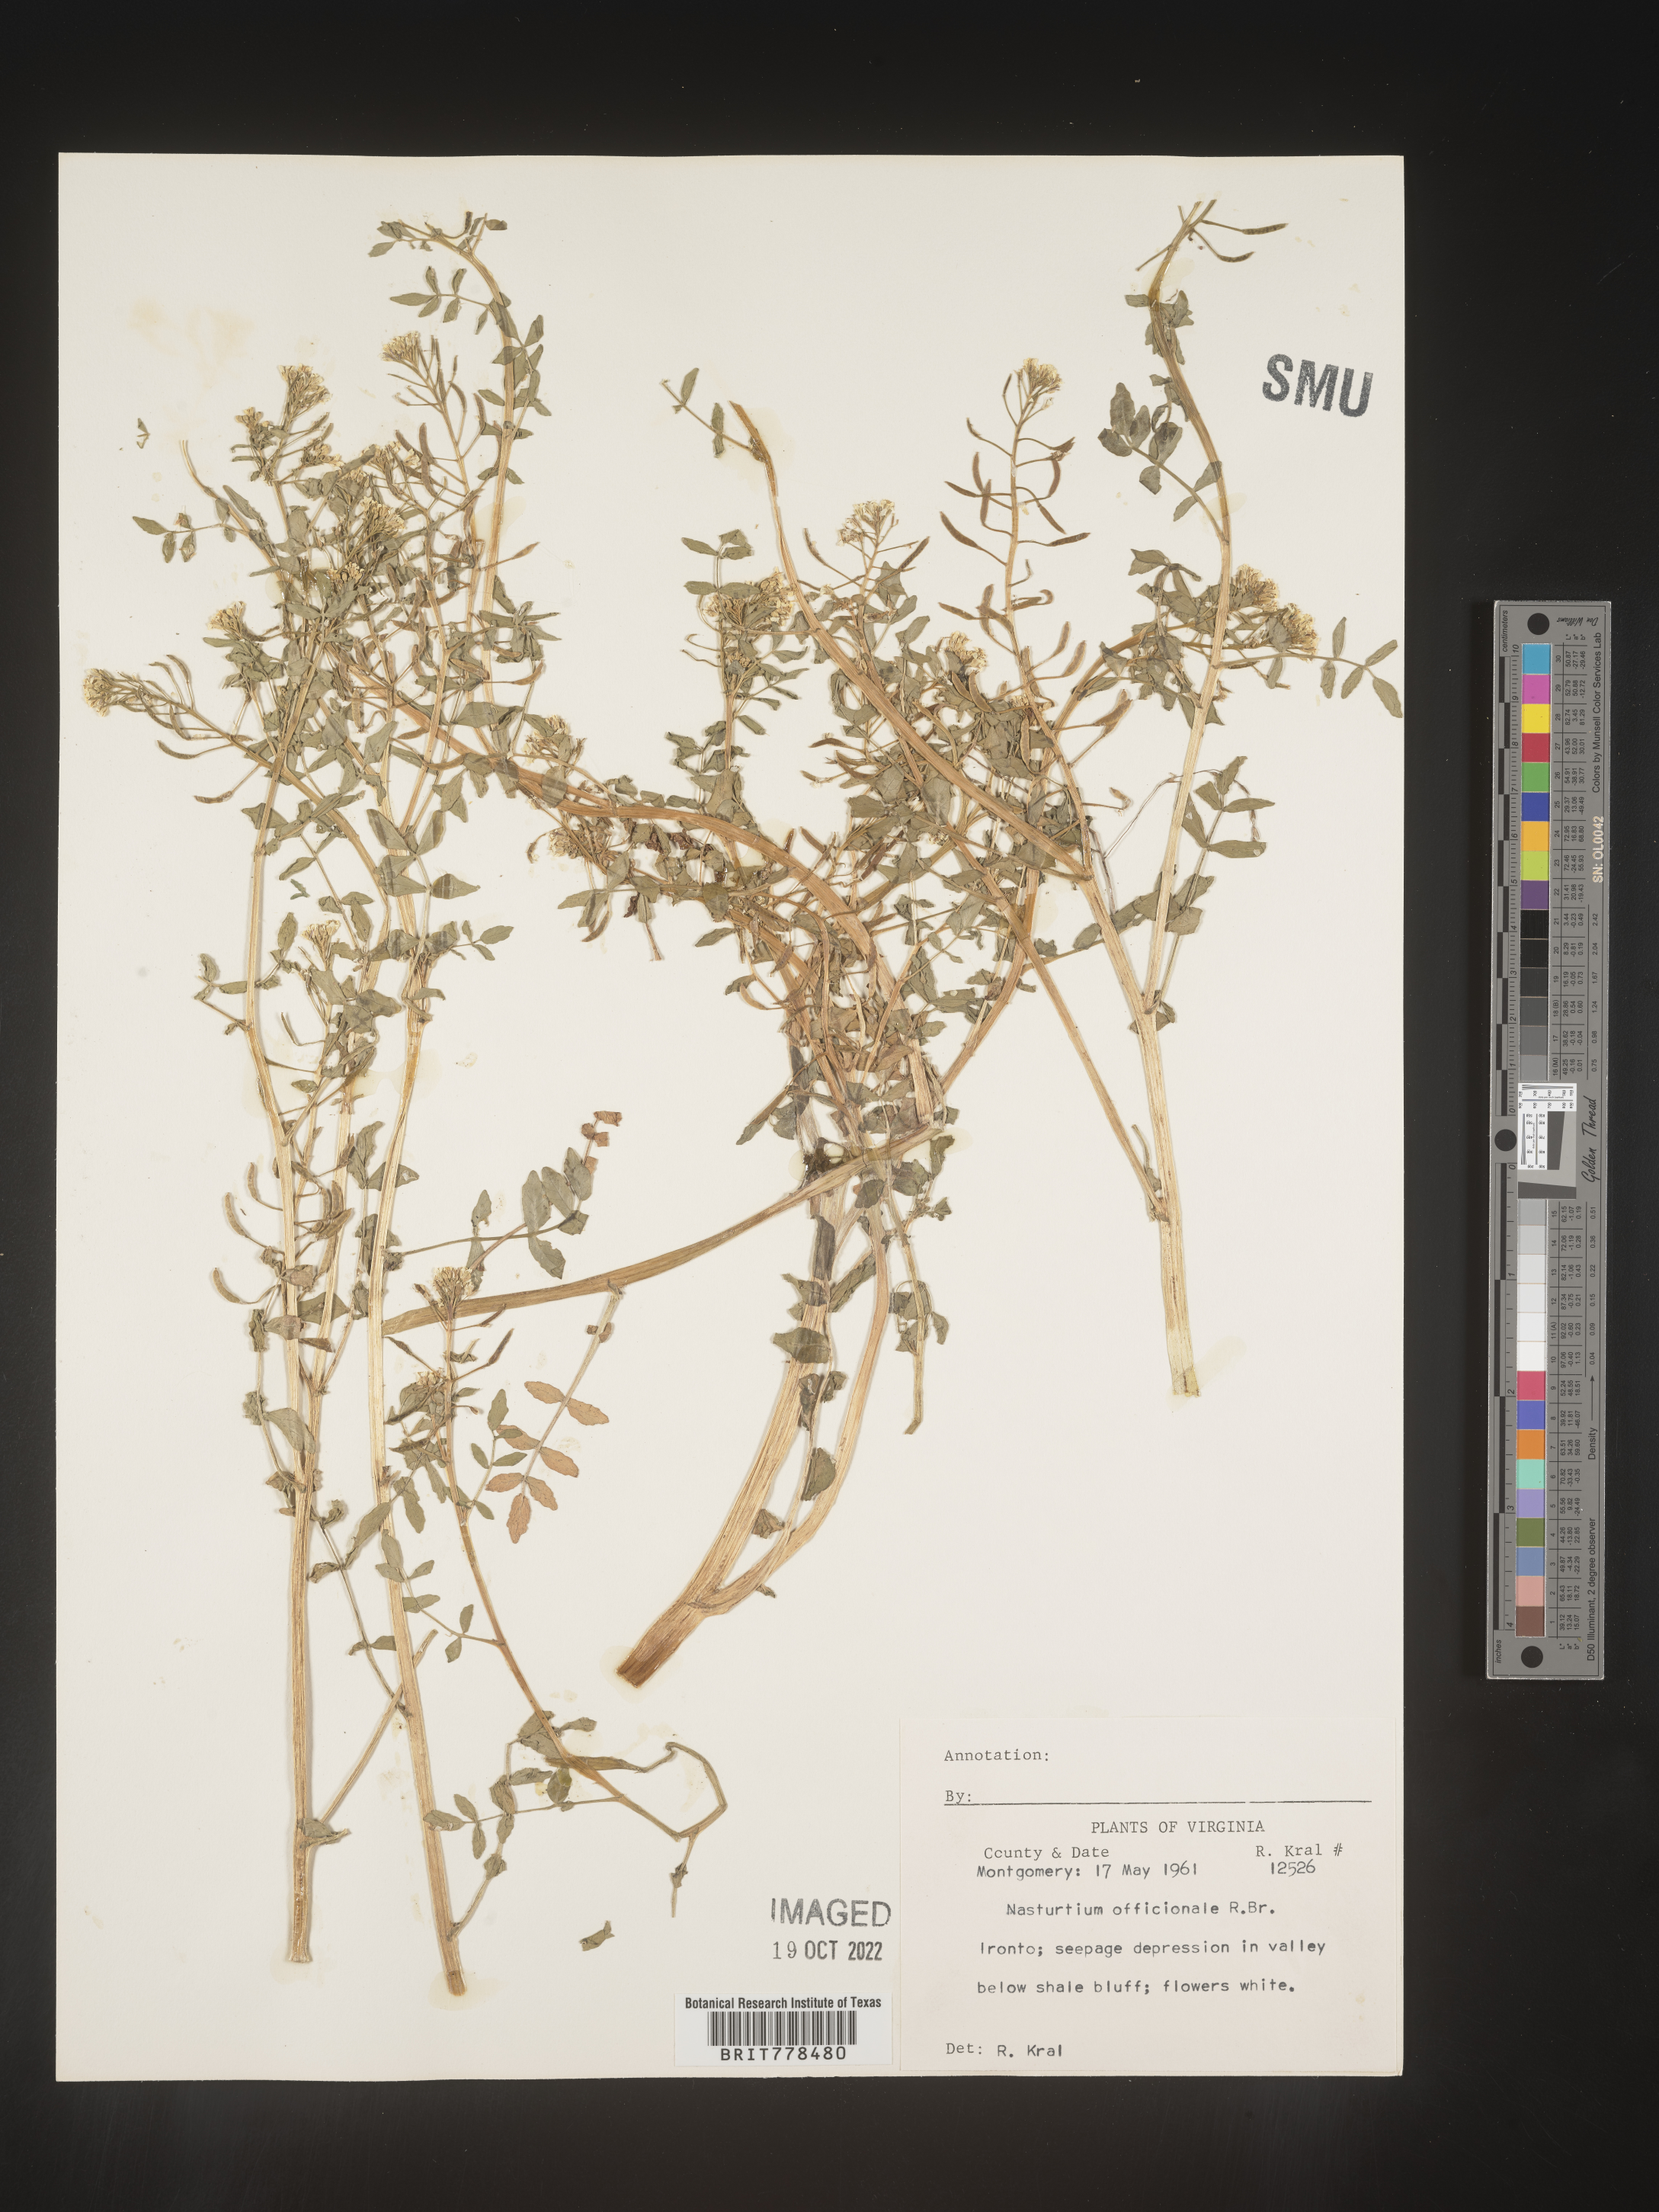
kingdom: Plantae
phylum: Tracheophyta
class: Magnoliopsida
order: Brassicales
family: Brassicaceae
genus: Nasturtium
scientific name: Nasturtium officinale
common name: Watercress
